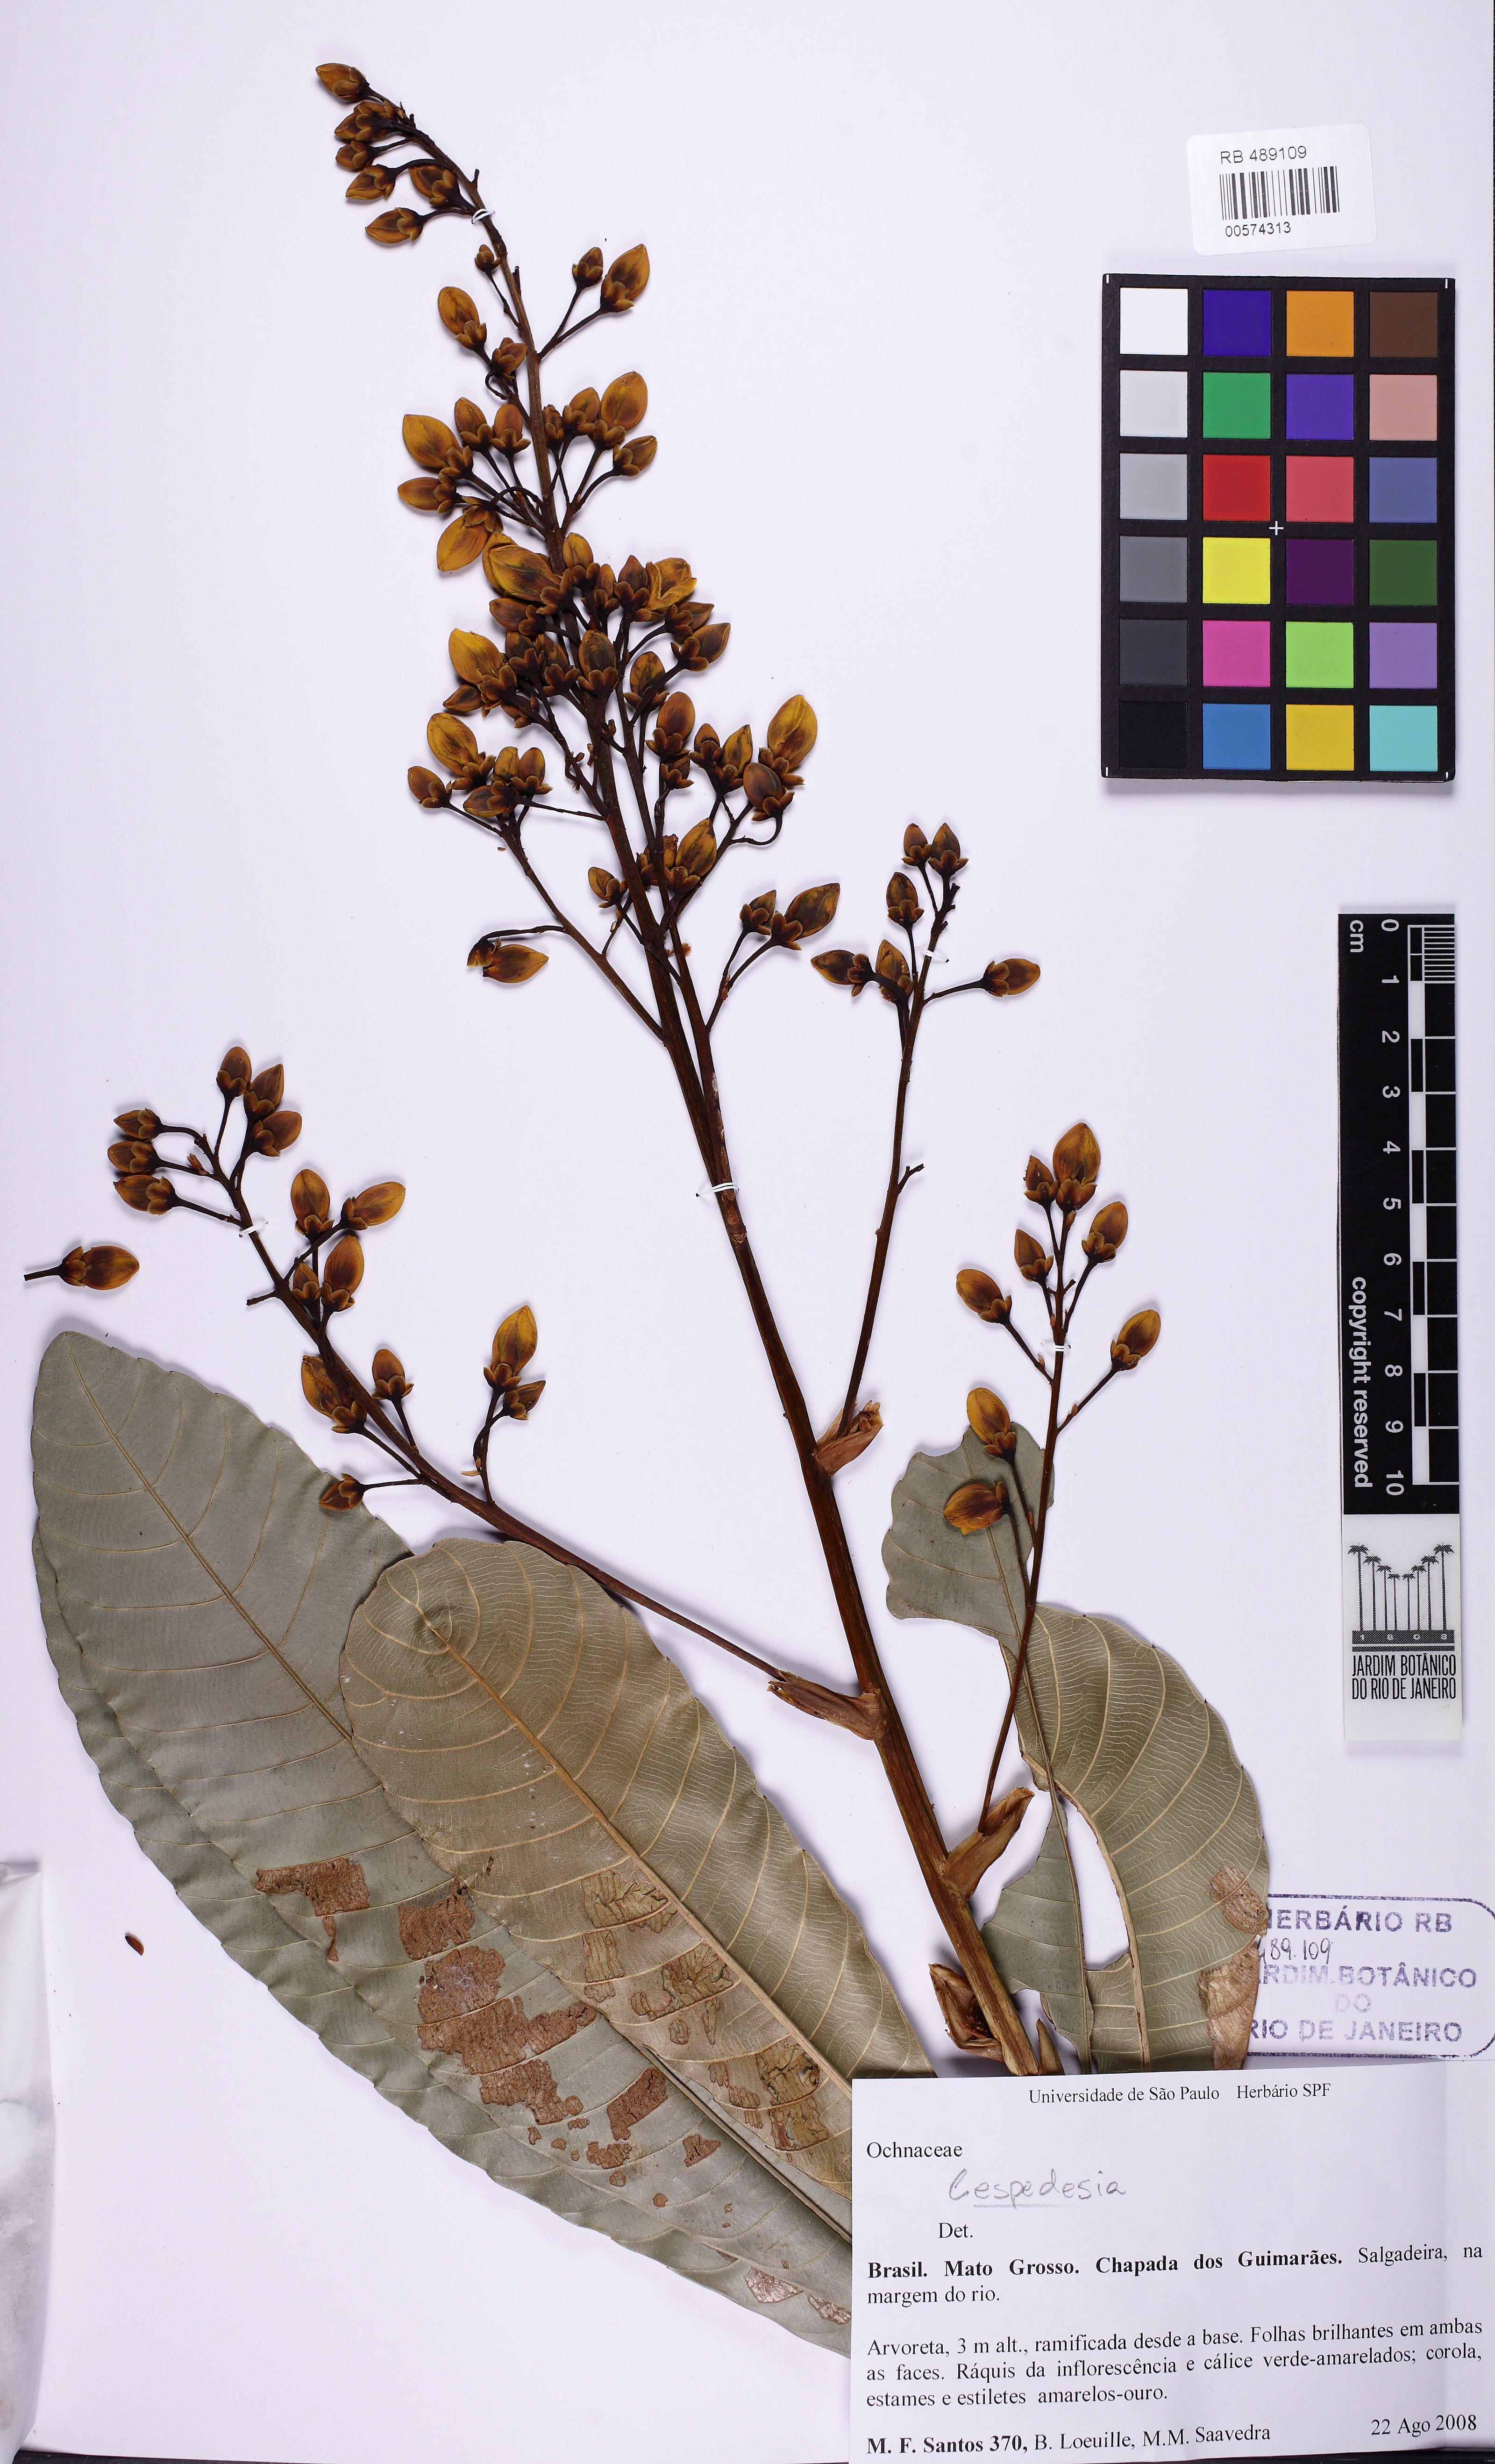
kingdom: Plantae
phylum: Tracheophyta
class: Magnoliopsida
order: Malpighiales
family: Ochnaceae
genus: Cespedesia
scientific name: Cespedesia
